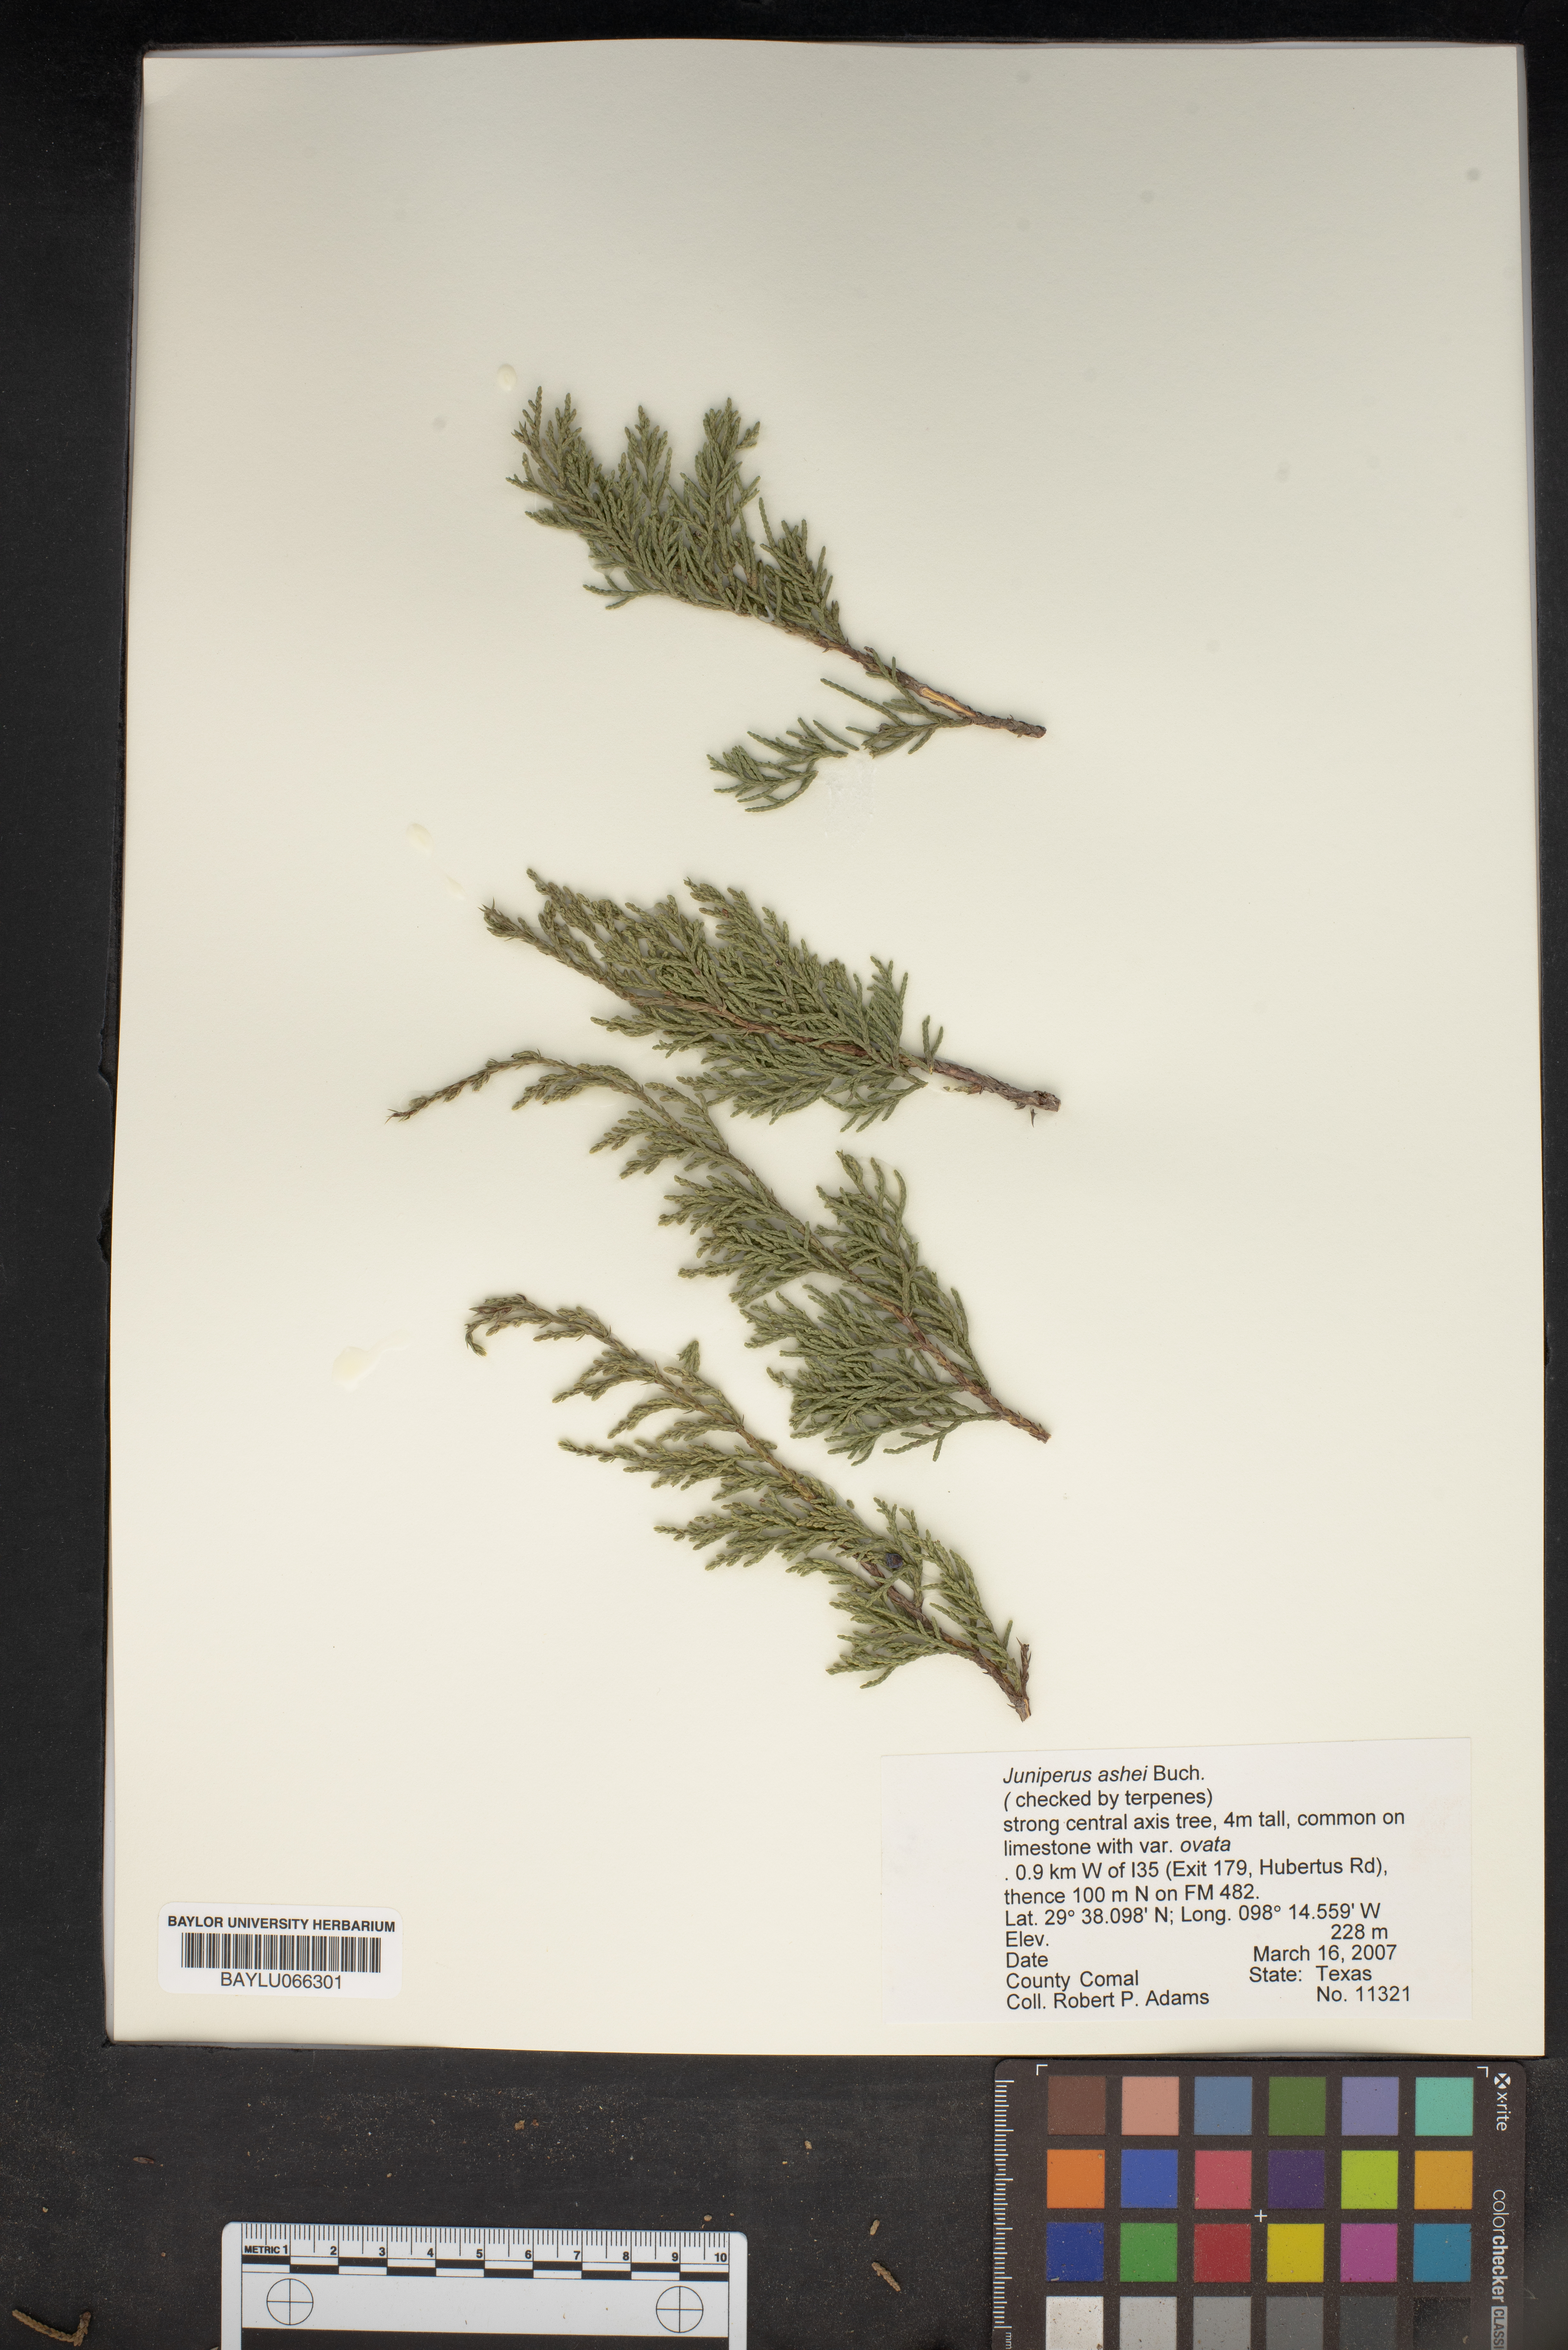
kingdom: Plantae
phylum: Tracheophyta
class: Pinopsida
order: Pinales
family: Cupressaceae
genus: Juniperus
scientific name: Juniperus ashei
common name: Mexican juniper
